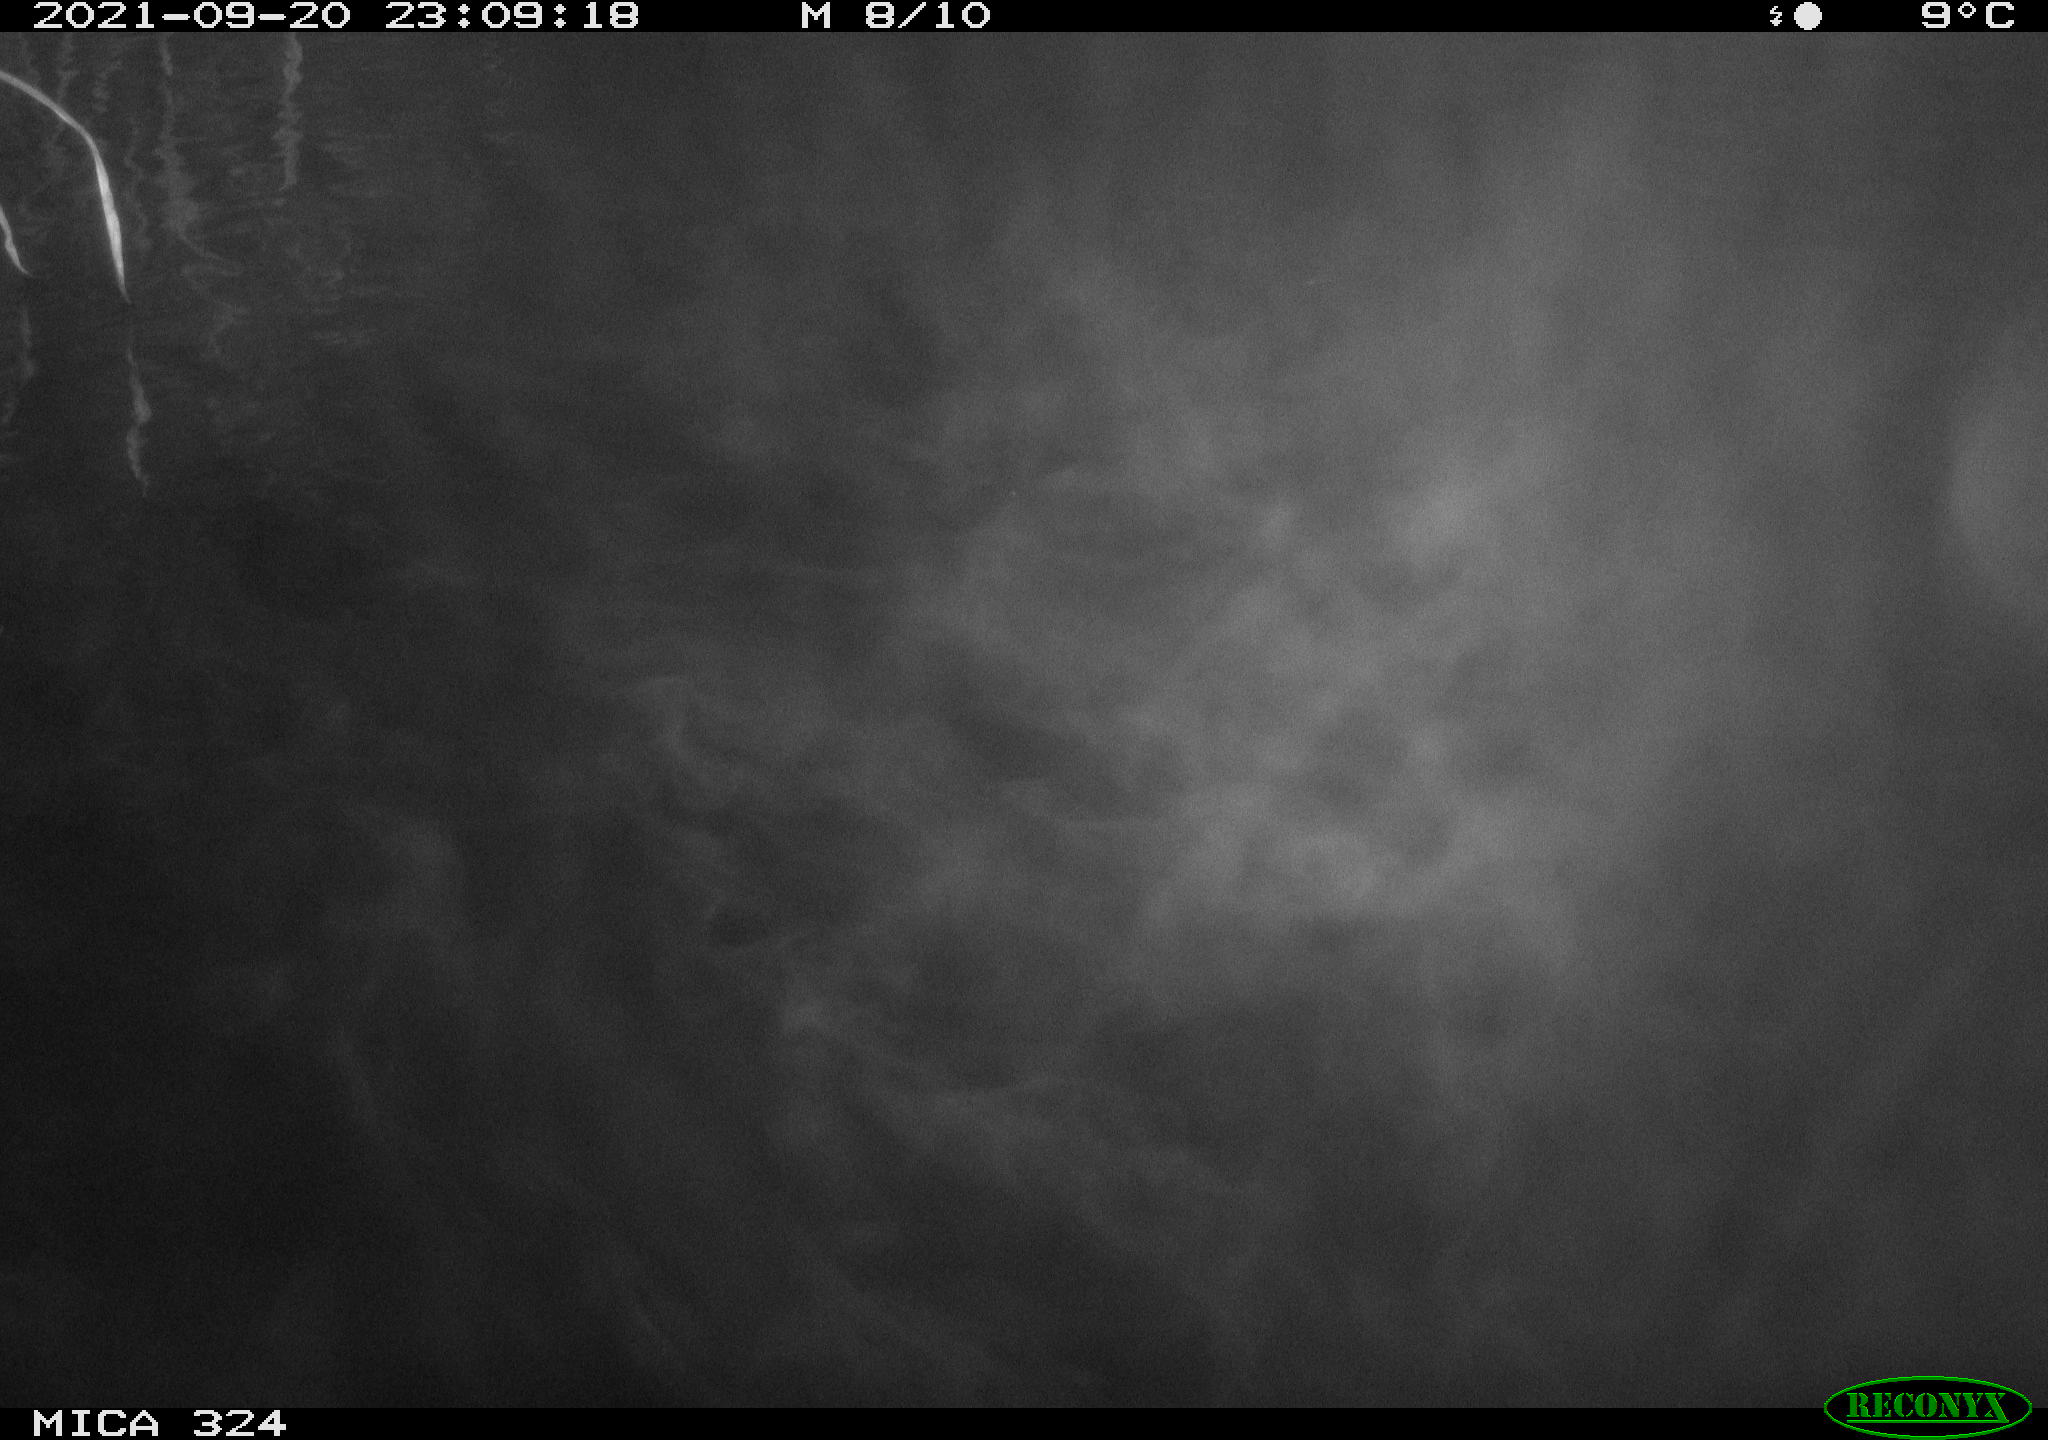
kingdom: Animalia
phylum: Chordata
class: Mammalia
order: Rodentia
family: Cricetidae
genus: Ondatra
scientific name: Ondatra zibethicus
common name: Muskrat
